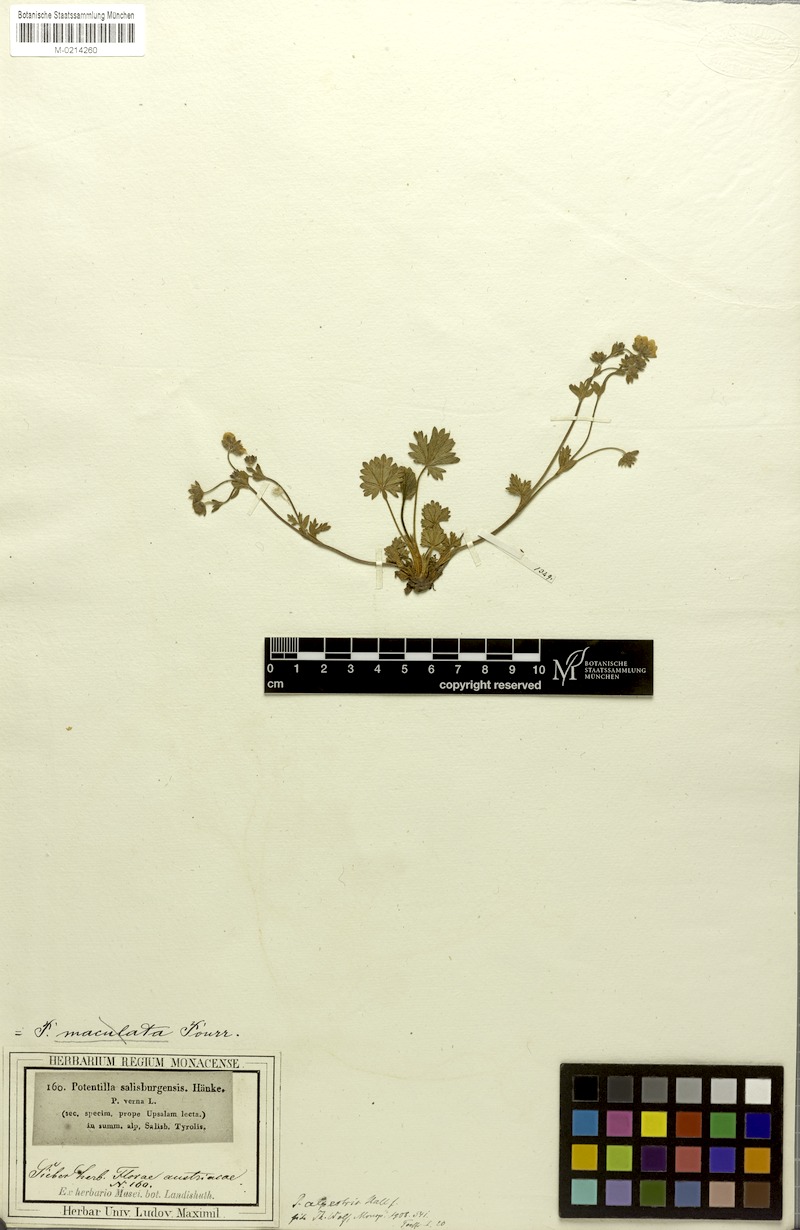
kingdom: Plantae
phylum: Tracheophyta
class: Magnoliopsida
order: Rosales
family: Rosaceae
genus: Potentilla
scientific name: Potentilla crantzii
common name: Alpine cinquefoil
